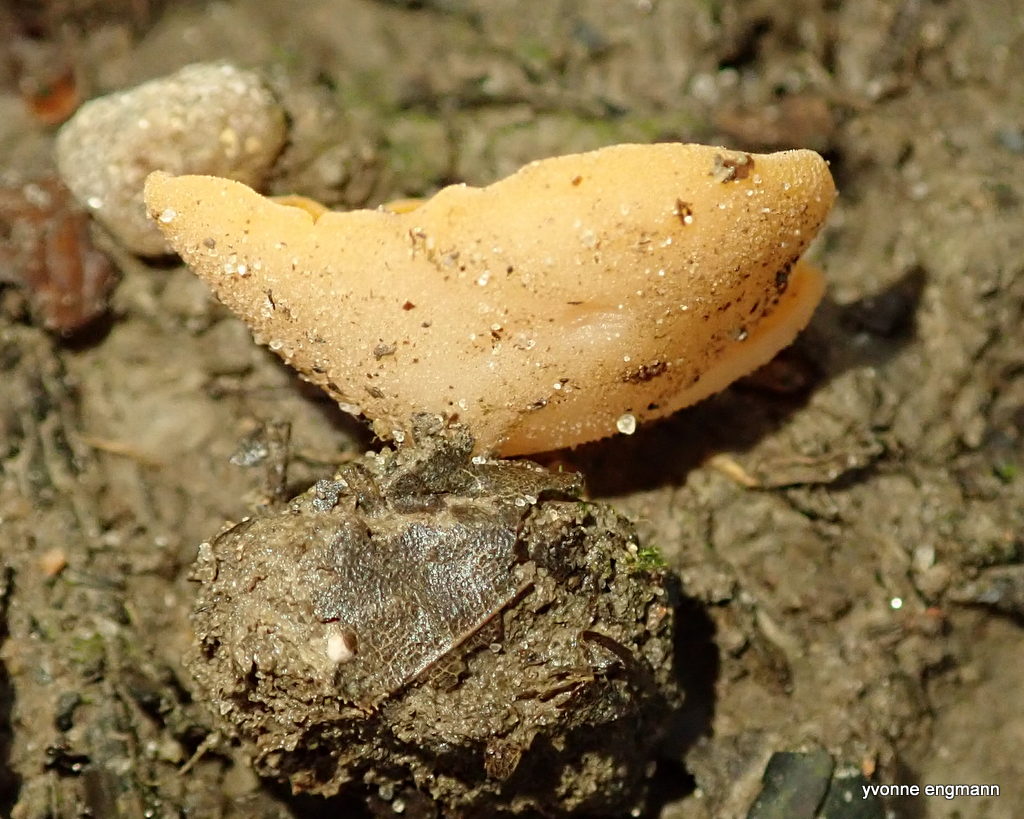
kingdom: Fungi
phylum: Ascomycota
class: Pezizomycetes
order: Pezizales
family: Pyronemataceae
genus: Aleuria
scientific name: Aleuria aurantia
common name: almindelig orangebæger
